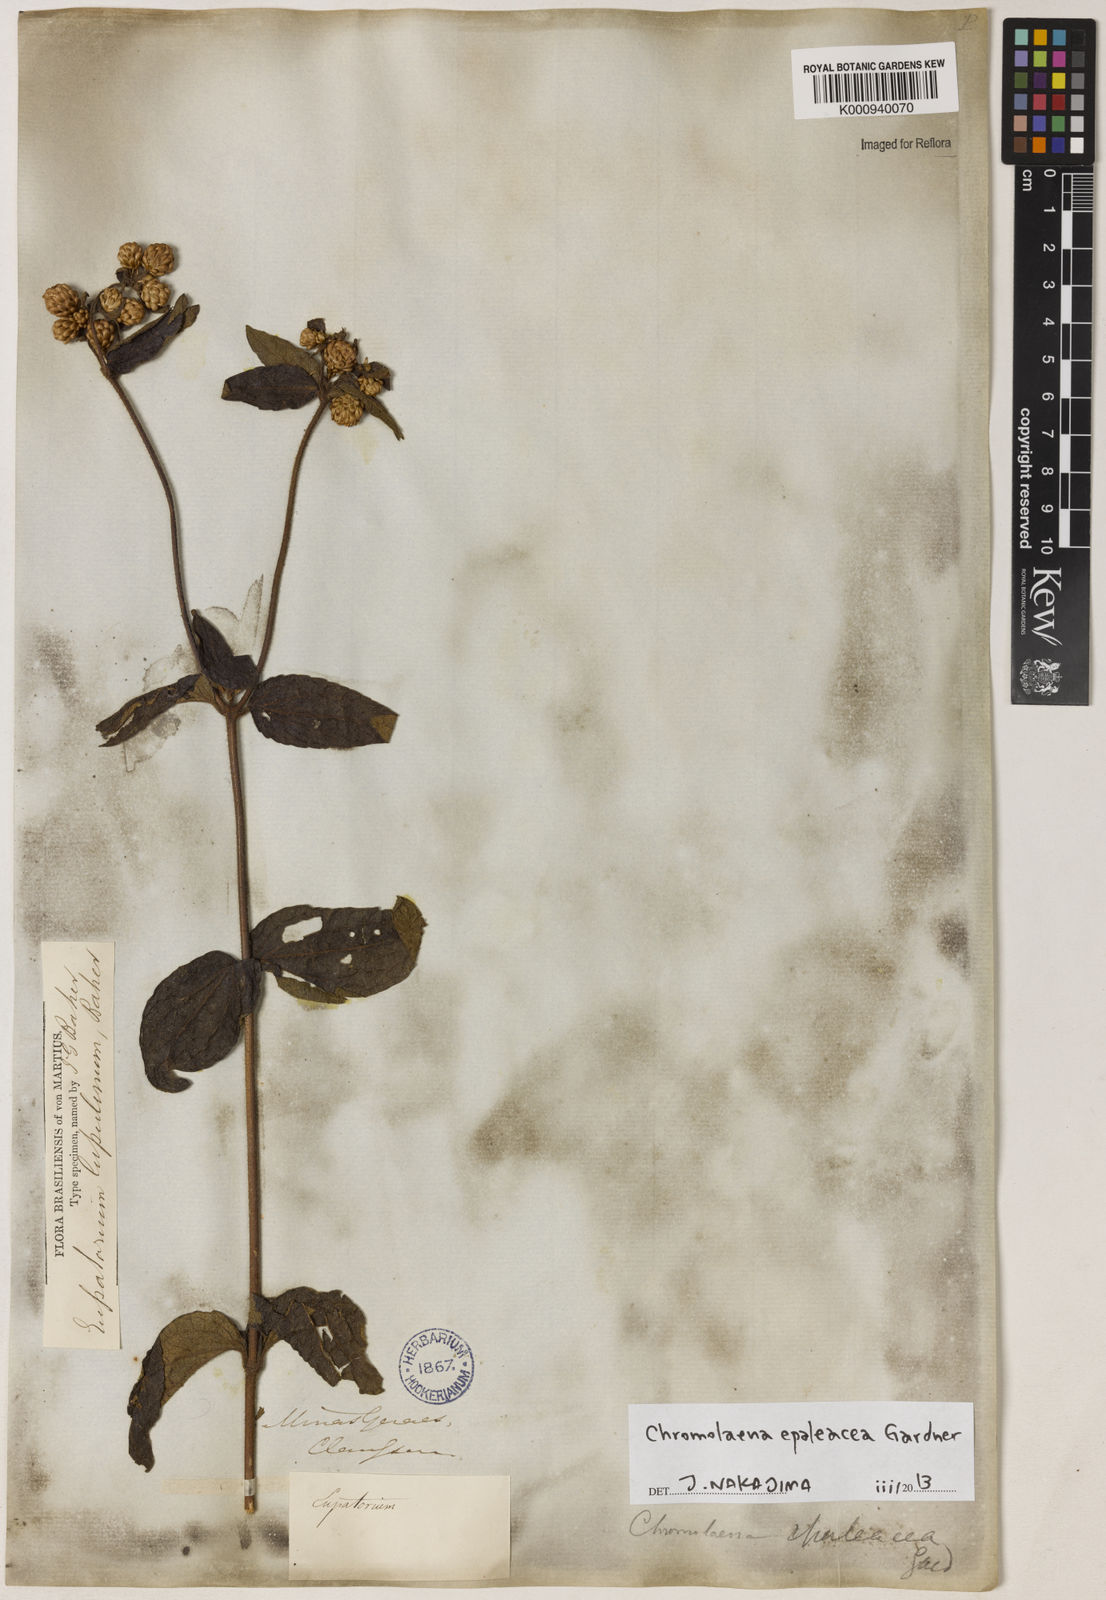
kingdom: Plantae
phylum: Tracheophyta
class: Magnoliopsida
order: Asterales
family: Asteraceae
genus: Chromolaena
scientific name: Chromolaena epaleacea
